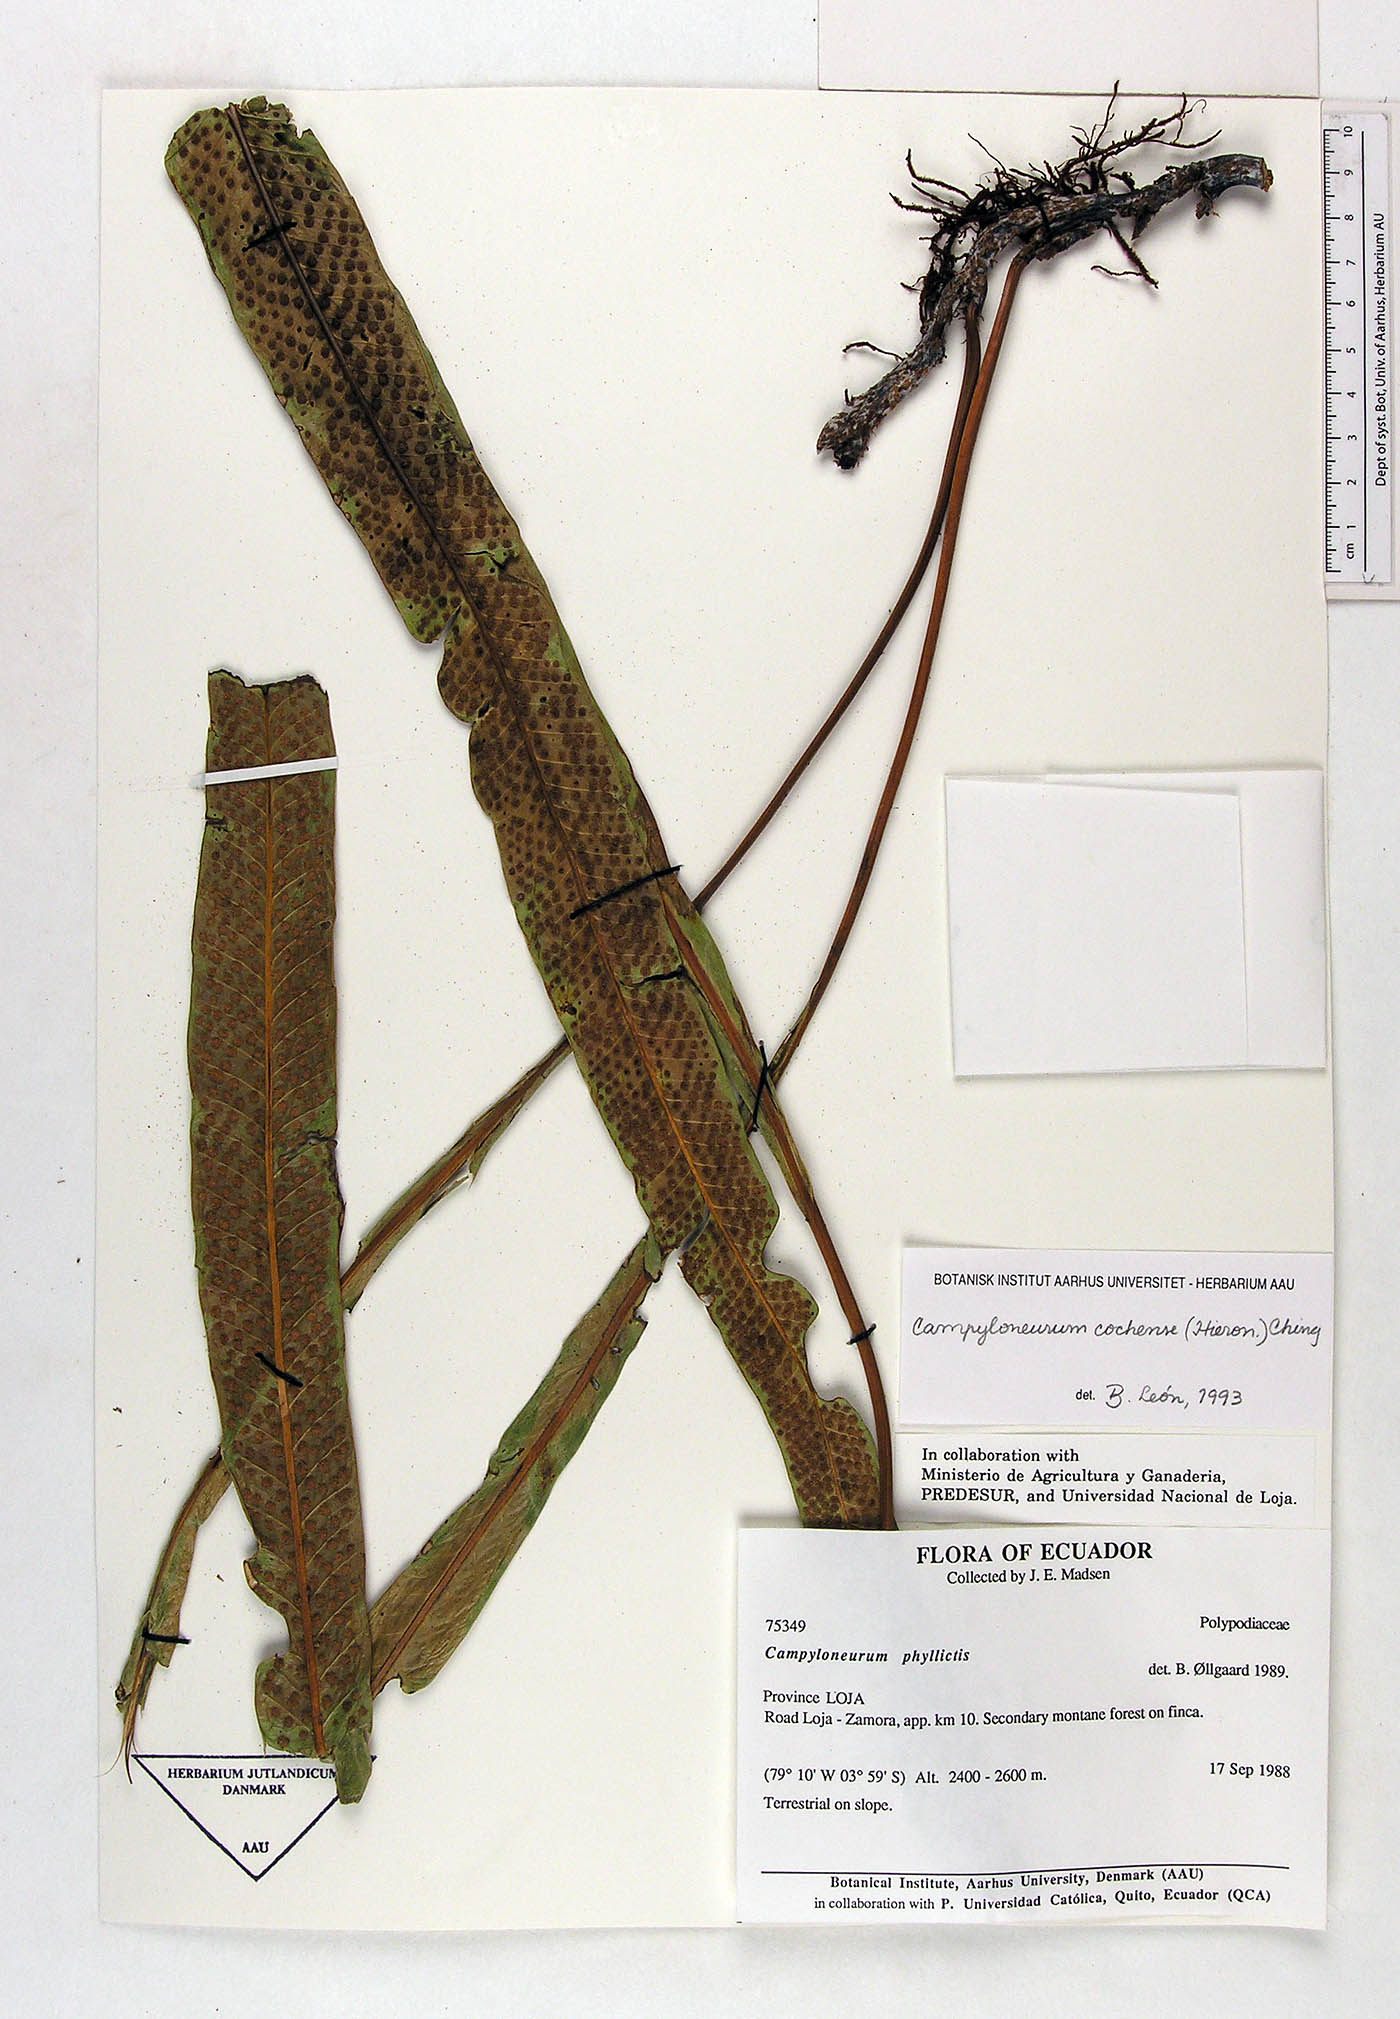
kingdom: Plantae
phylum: Tracheophyta
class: Polypodiopsida
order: Polypodiales
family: Polypodiaceae
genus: Campyloneurum
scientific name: Campyloneurum cochense
